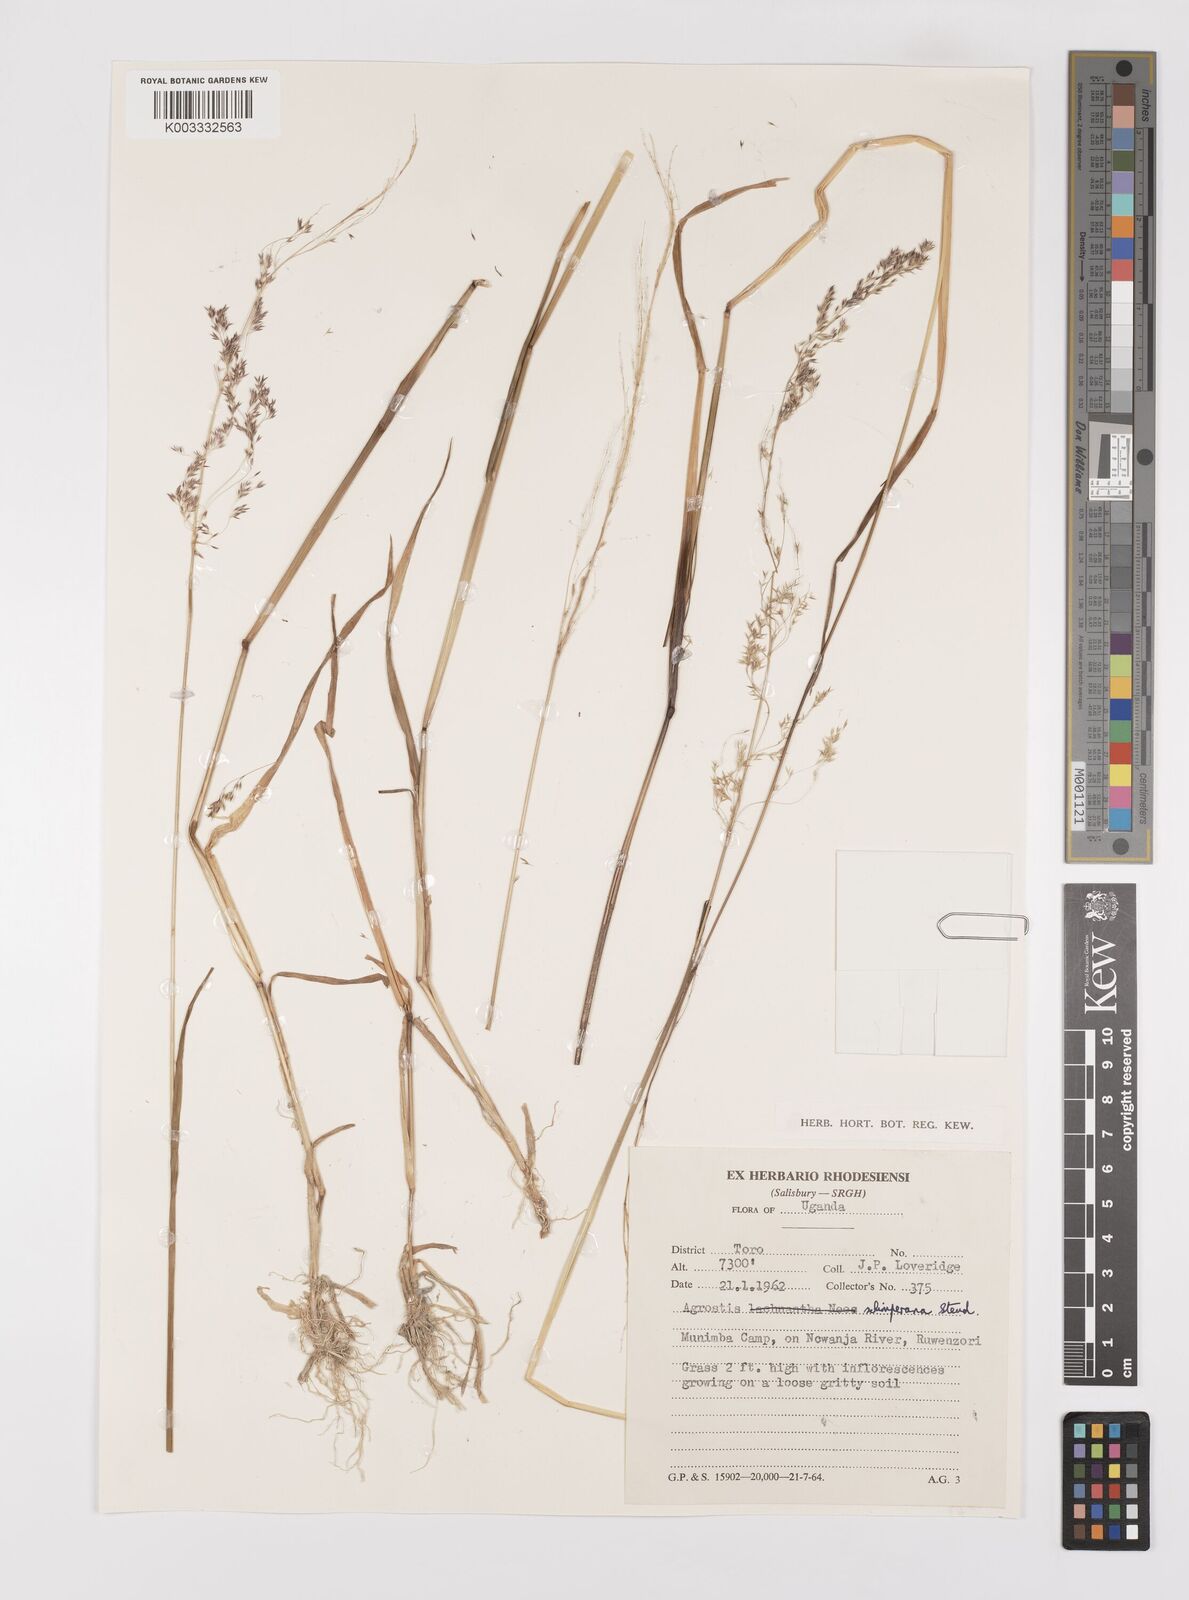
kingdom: Plantae
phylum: Tracheophyta
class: Liliopsida
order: Poales
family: Poaceae
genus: Polypogon
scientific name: Polypogon schimperianus
